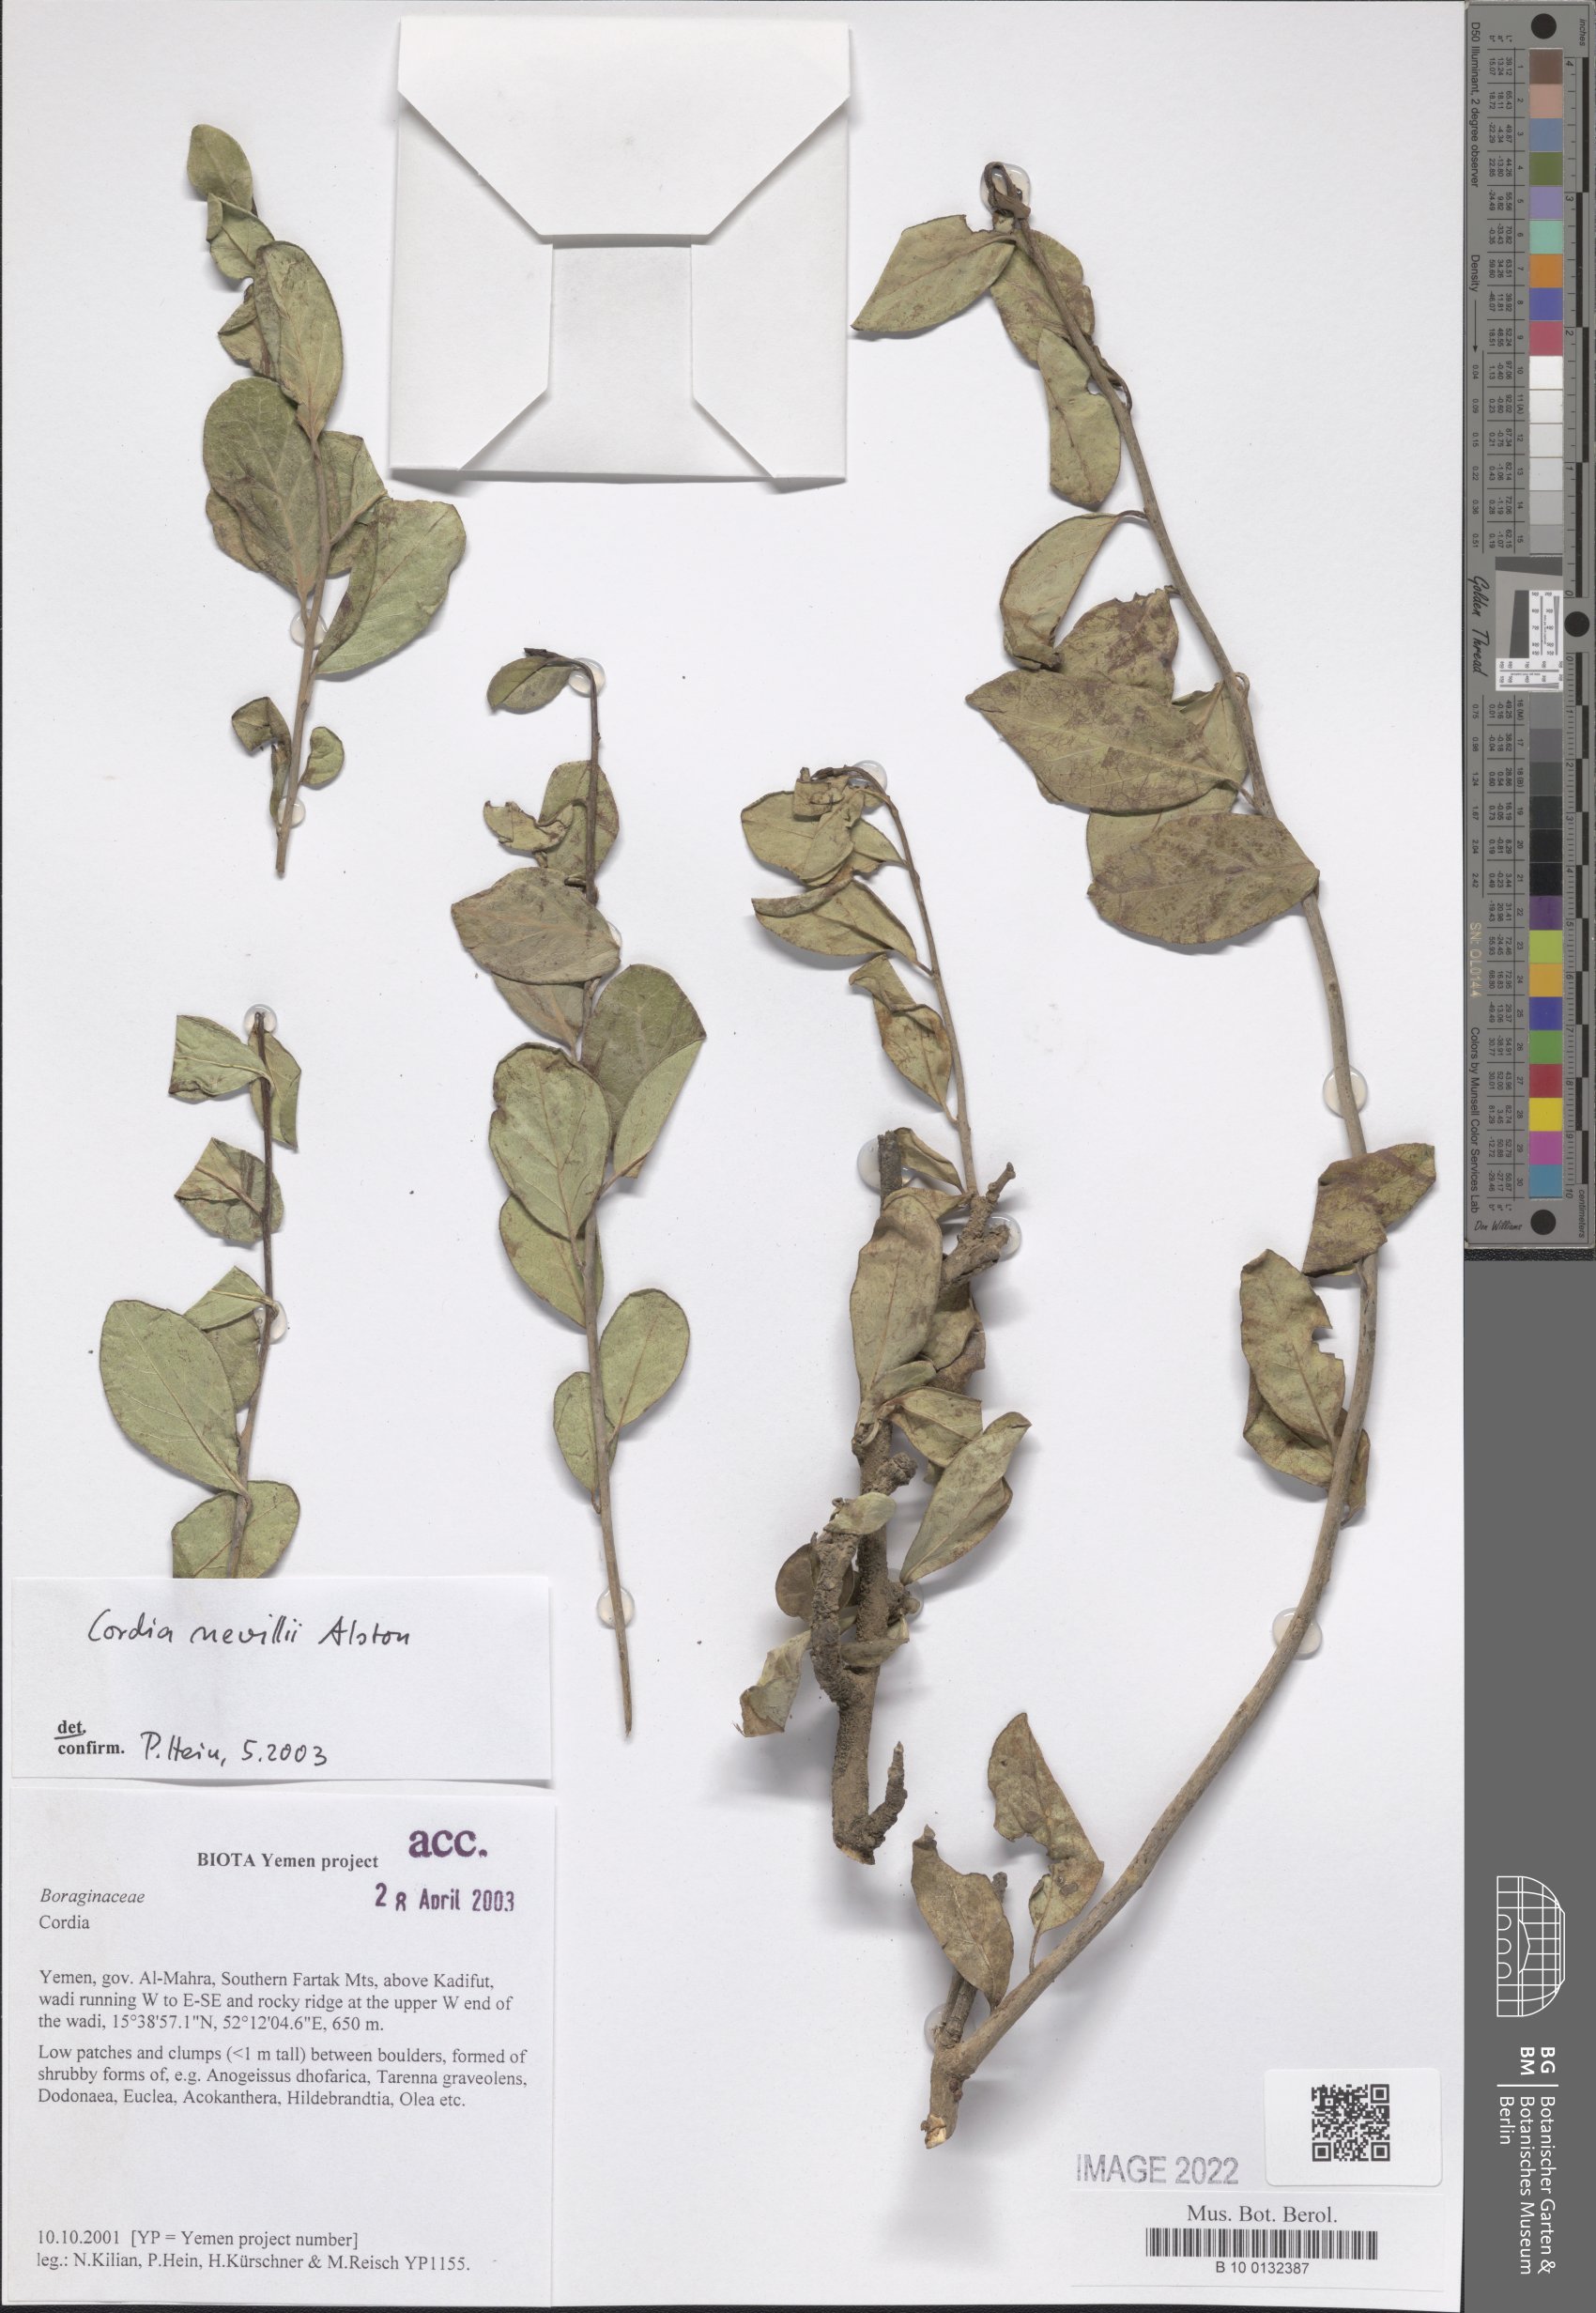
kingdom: Plantae
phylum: Tracheophyta
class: Magnoliopsida
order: Boraginales
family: Cordiaceae
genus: Cordia
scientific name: Cordia quercifolia
